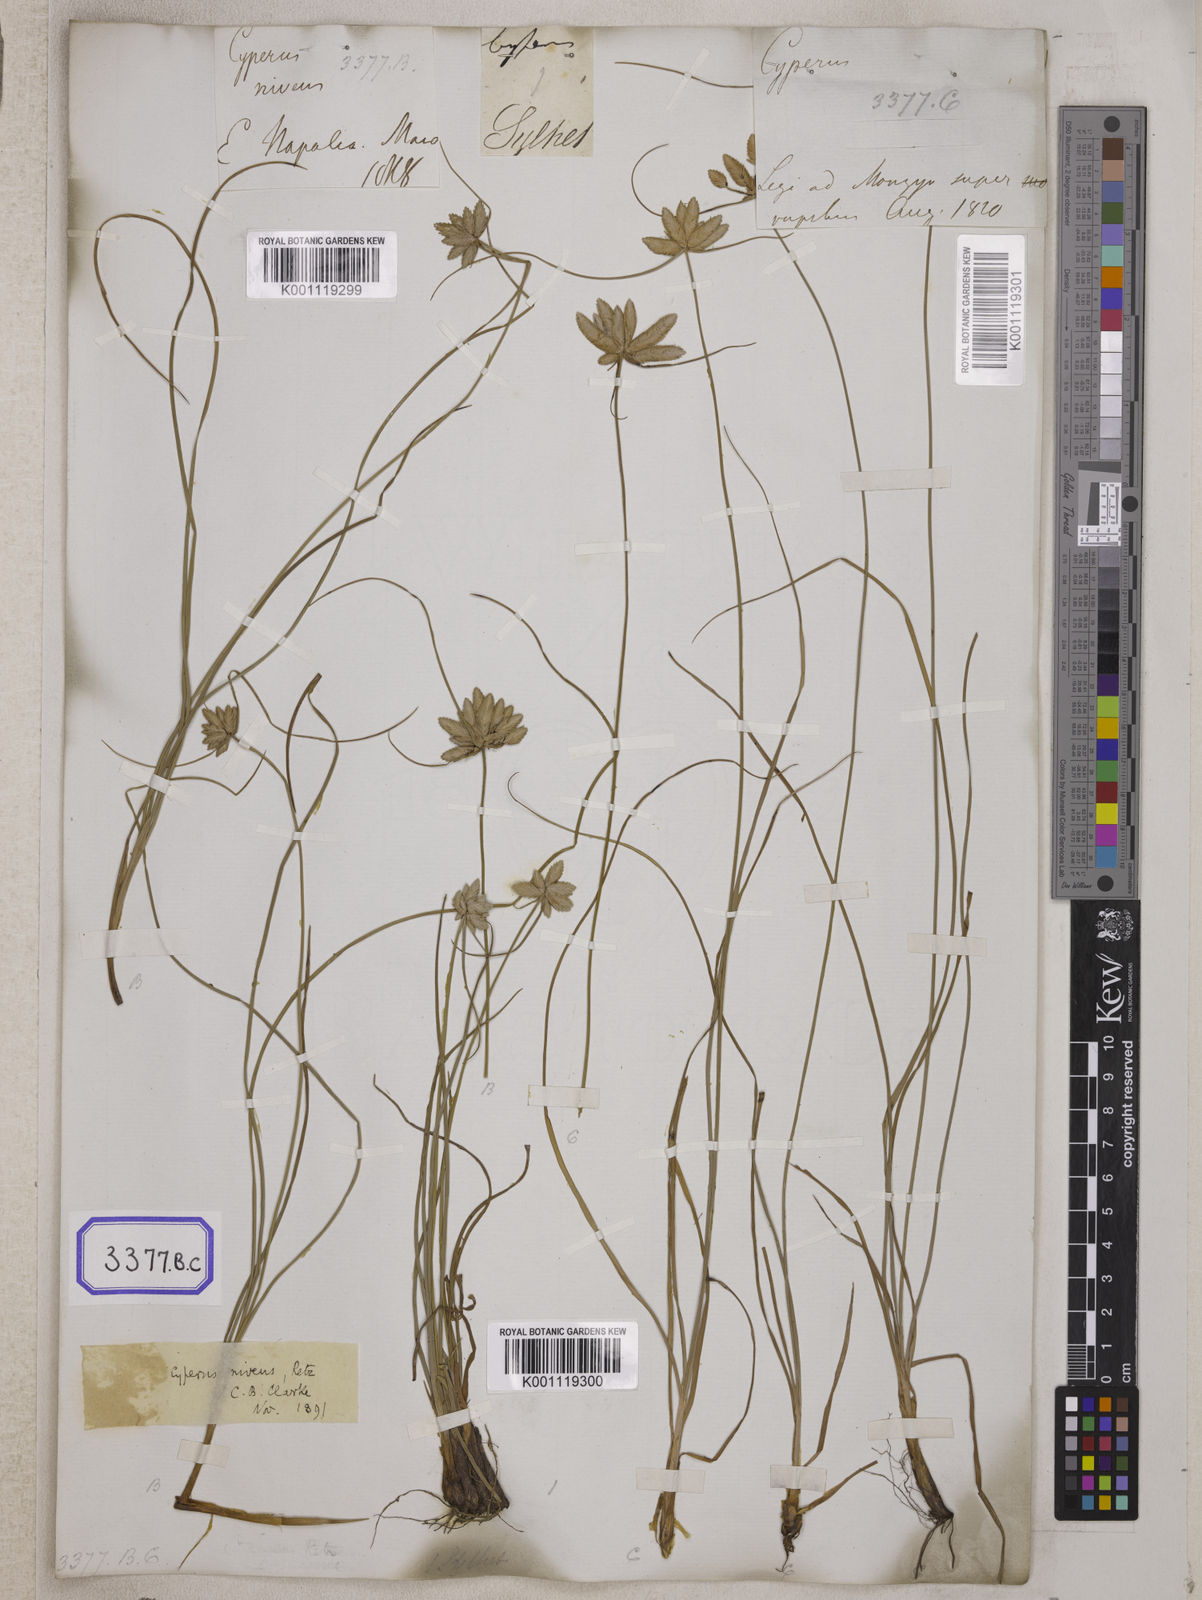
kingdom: Plantae
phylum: Tracheophyta
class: Liliopsida
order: Poales
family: Cyperaceae
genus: Cyperus
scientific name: Cyperus
